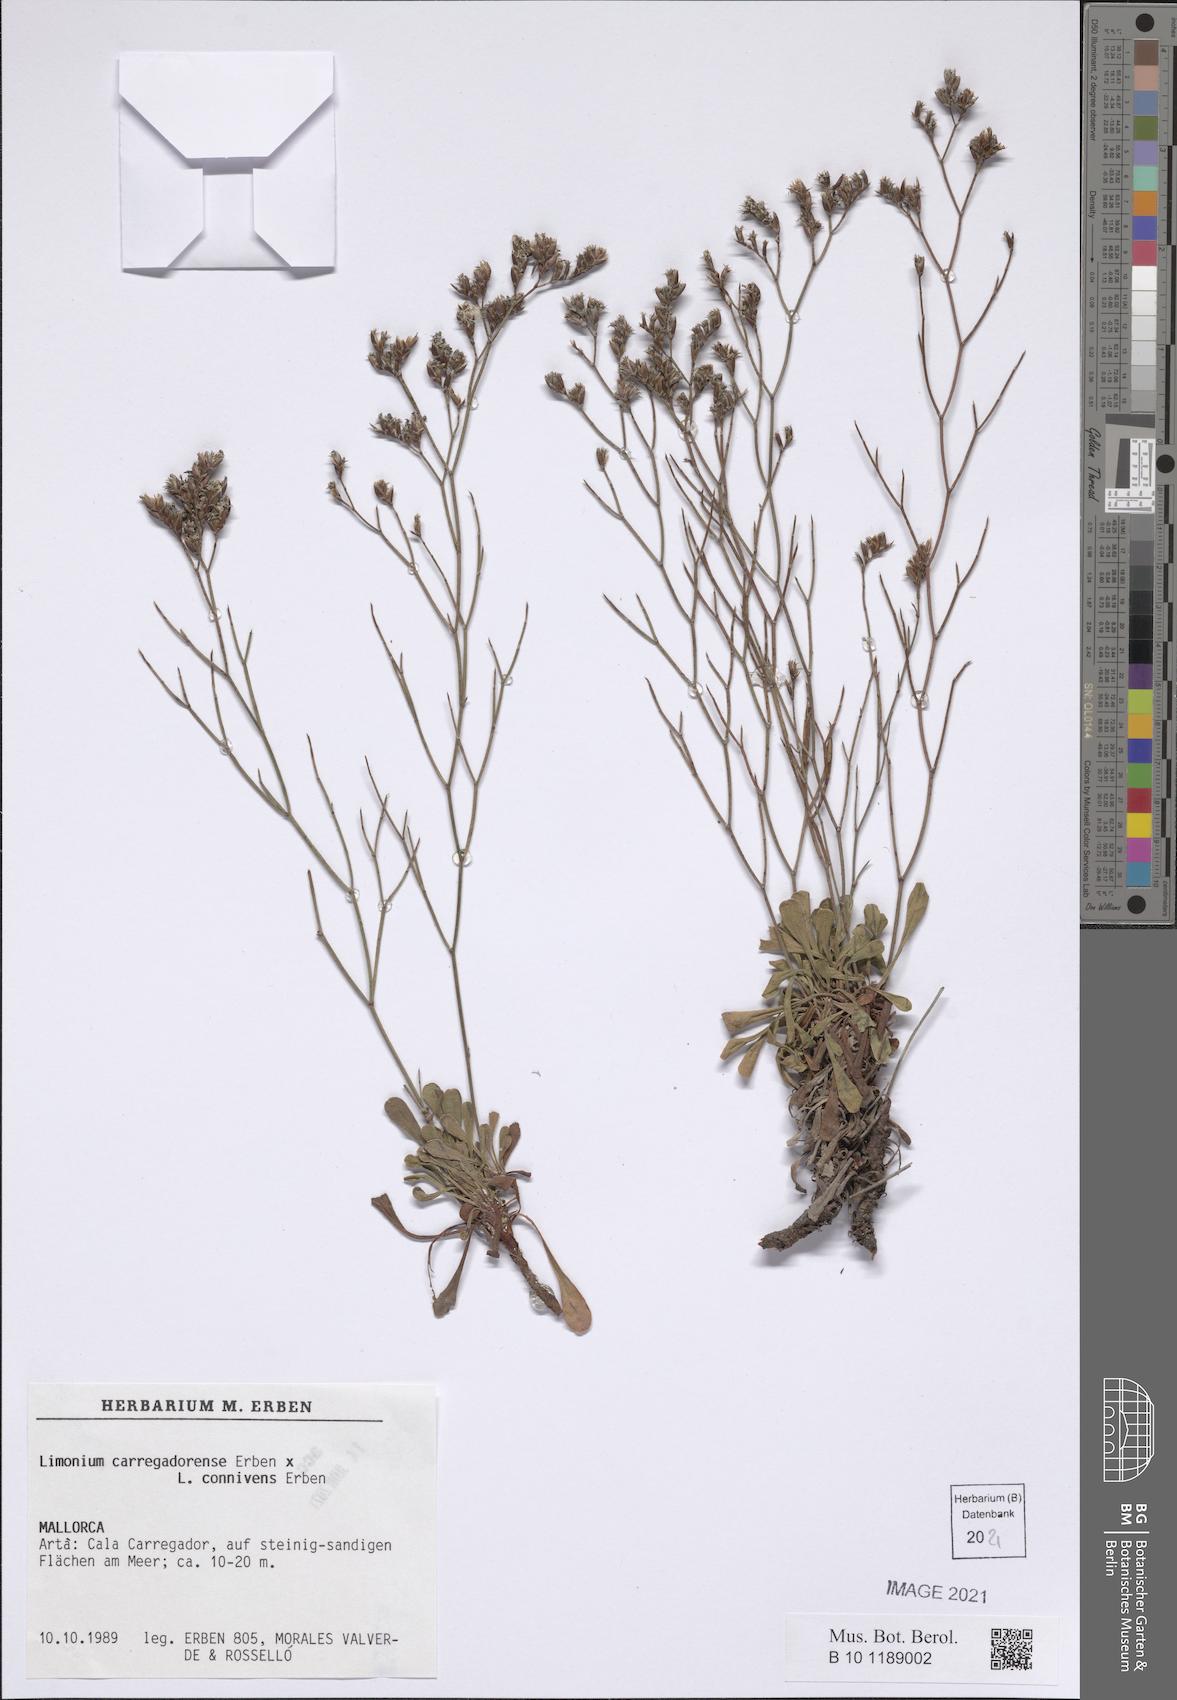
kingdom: Plantae
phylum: Tracheophyta
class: Magnoliopsida
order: Caryophyllales
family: Plumbaginaceae
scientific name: Plumbaginaceae
